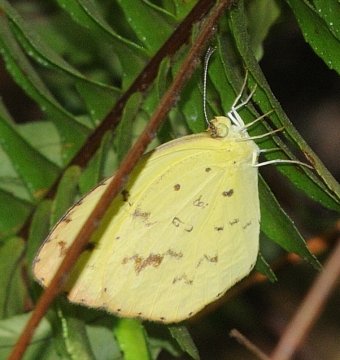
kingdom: Animalia
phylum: Arthropoda
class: Insecta
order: Lepidoptera
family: Pieridae
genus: Eurema
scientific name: Eurema desjardinsii
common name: Angled Grass Yellow
